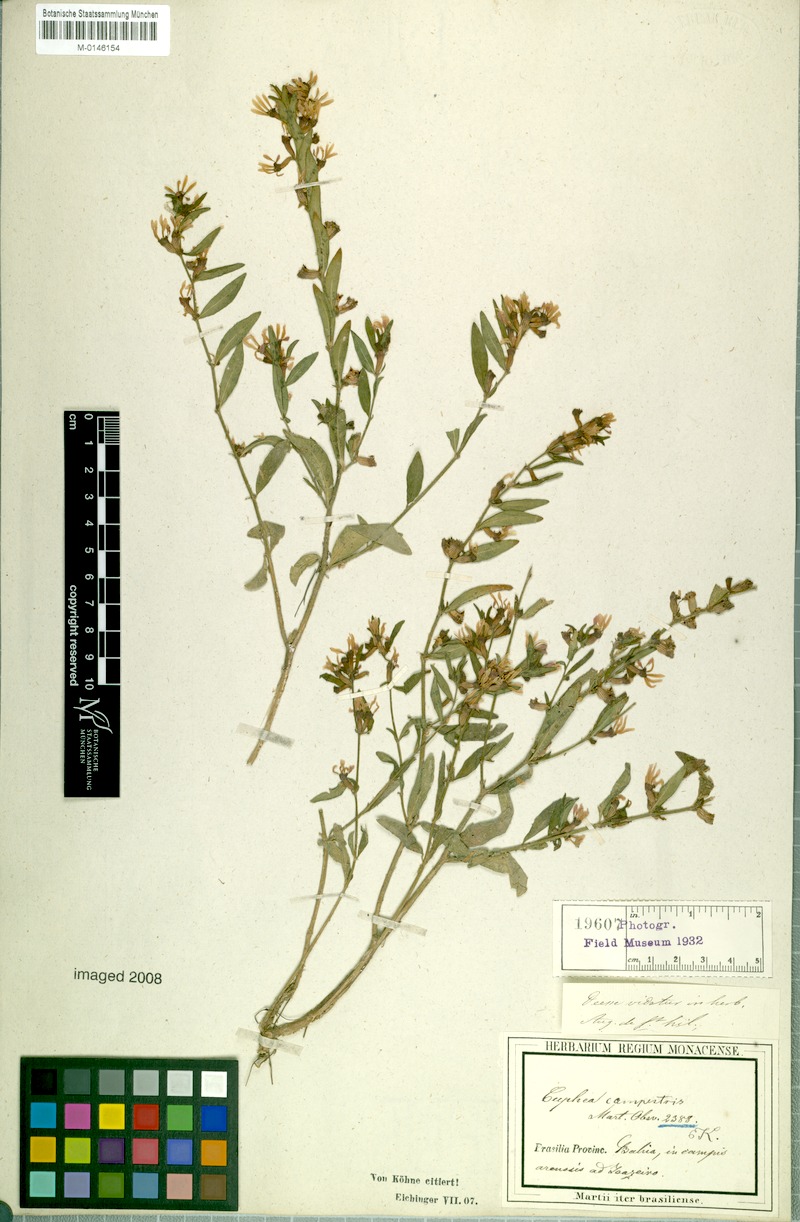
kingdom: Plantae
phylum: Tracheophyta
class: Magnoliopsida
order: Myrtales
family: Lythraceae
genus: Cuphea
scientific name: Cuphea campestris
